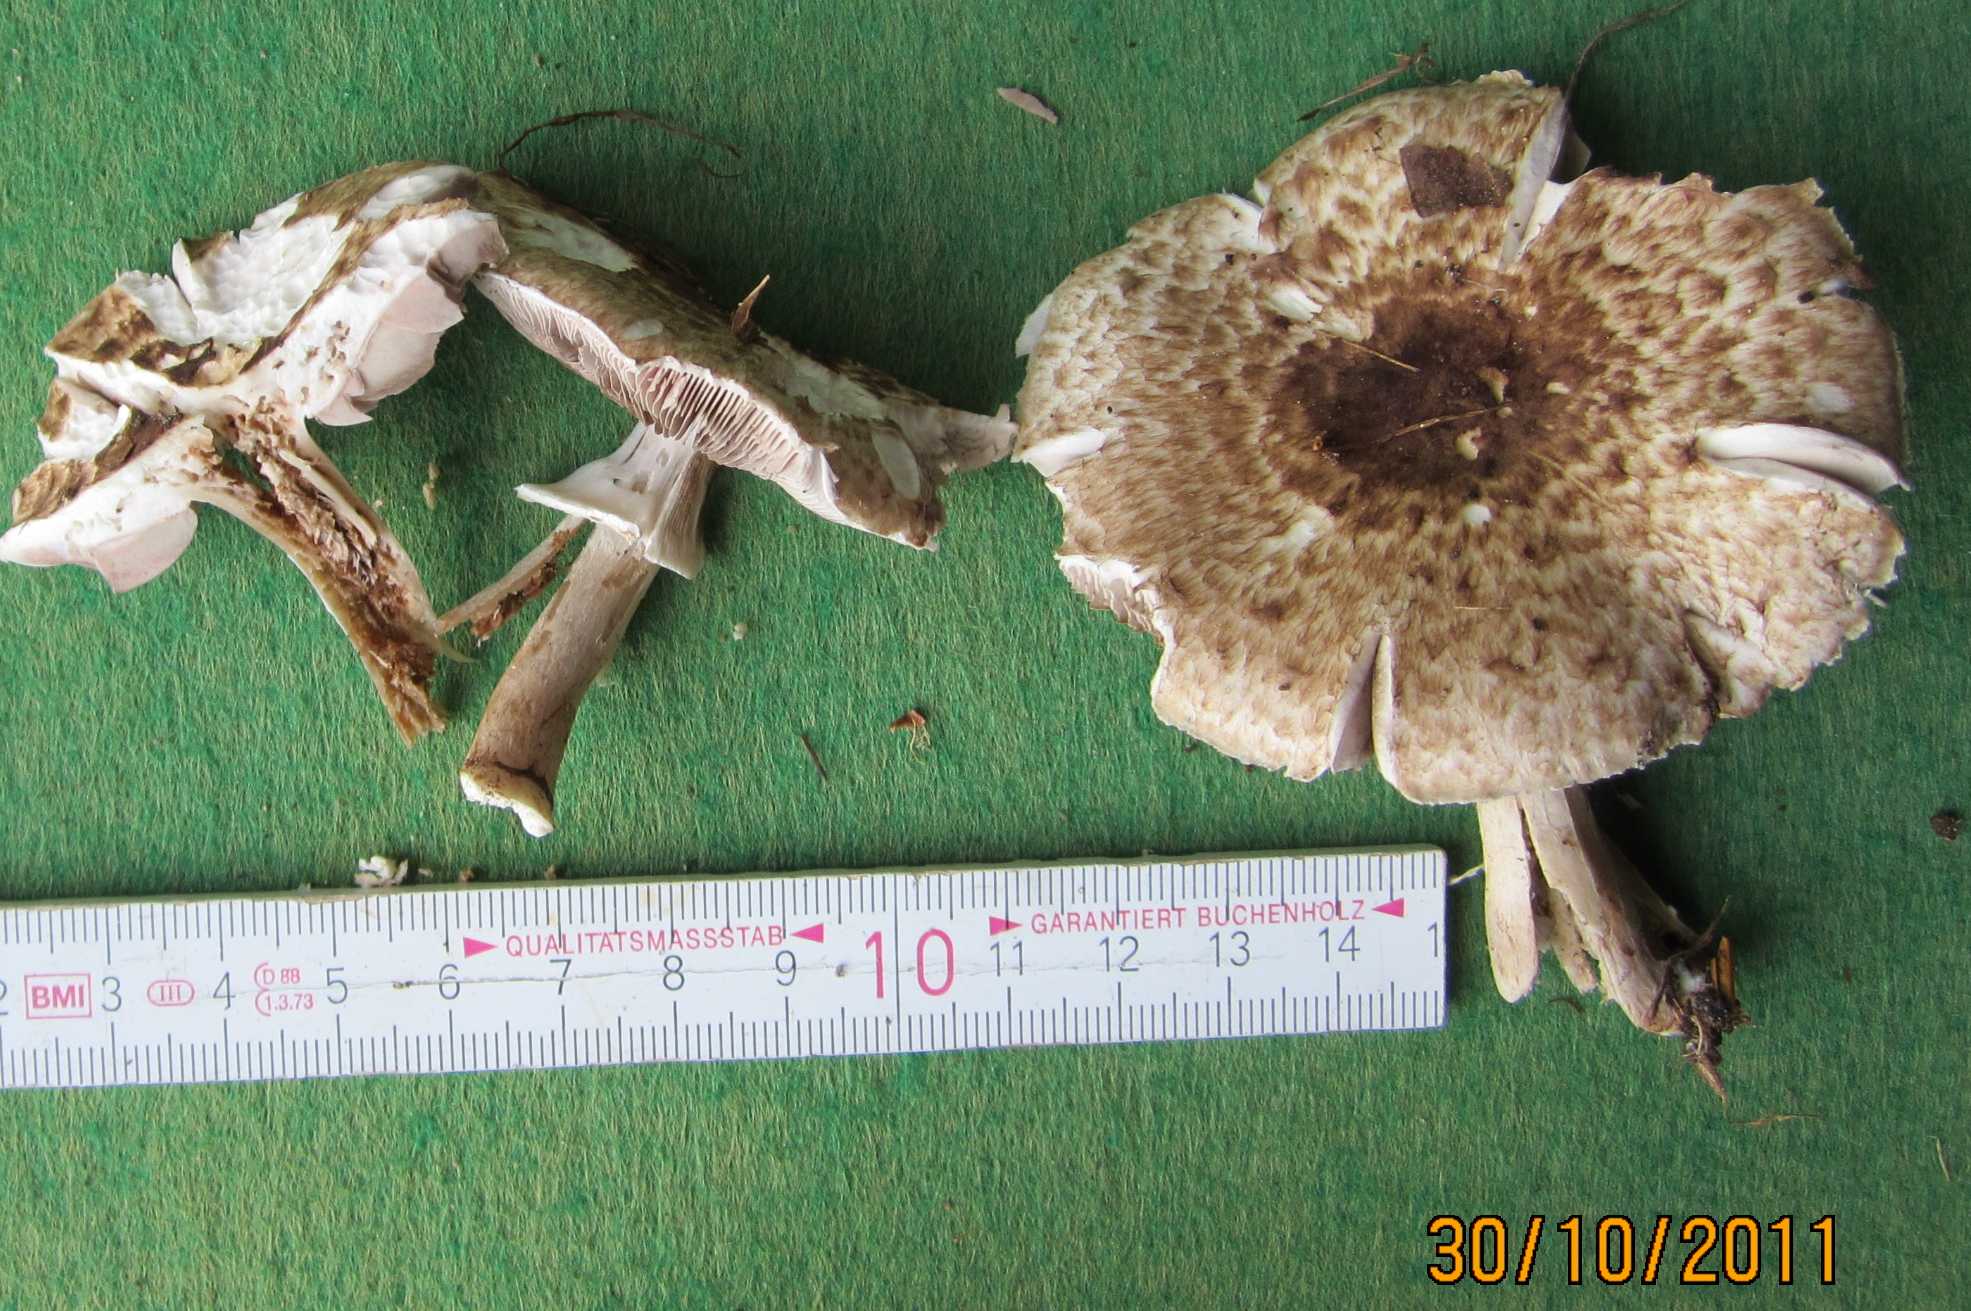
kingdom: Fungi
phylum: Basidiomycota
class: Agaricomycetes
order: Agaricales
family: Agaricaceae
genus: Agaricus
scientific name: Agaricus impudicus
